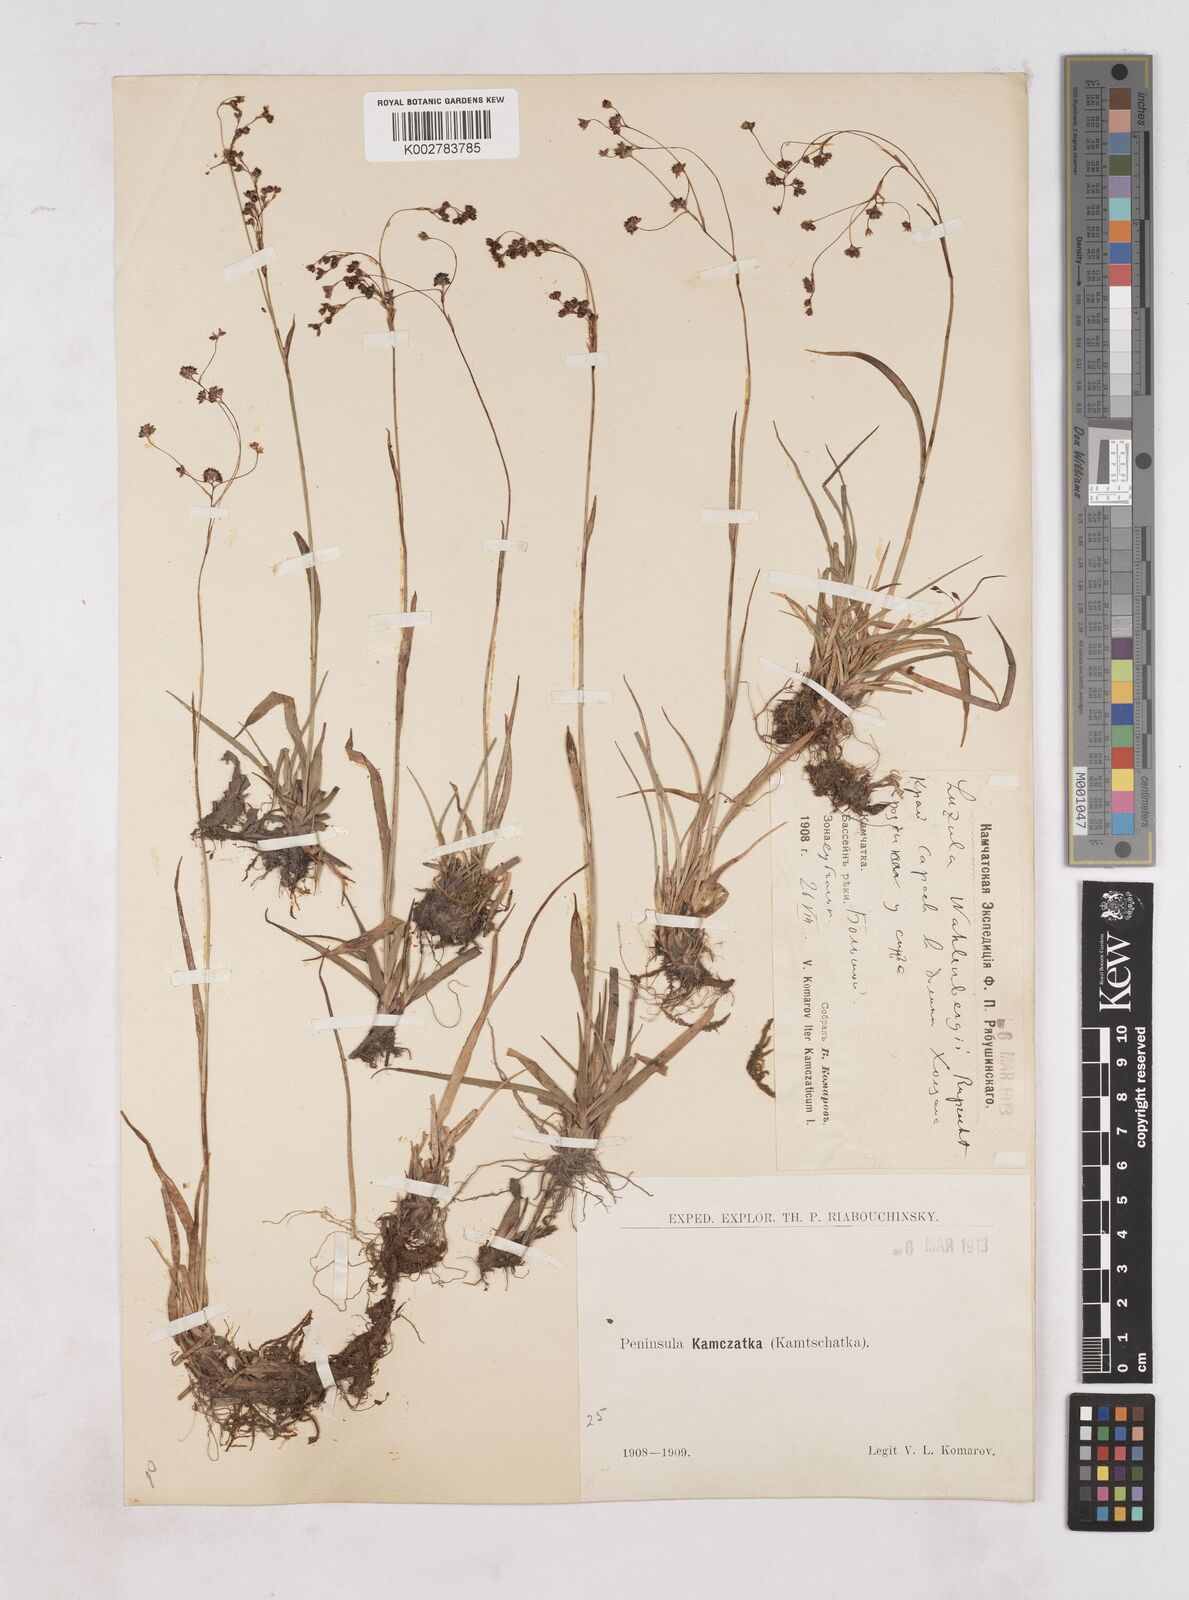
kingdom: Plantae
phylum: Tracheophyta
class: Liliopsida
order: Poales
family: Juncaceae
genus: Luzula
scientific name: Luzula wahlenbergii
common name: Wahlenberg's wood-rush
